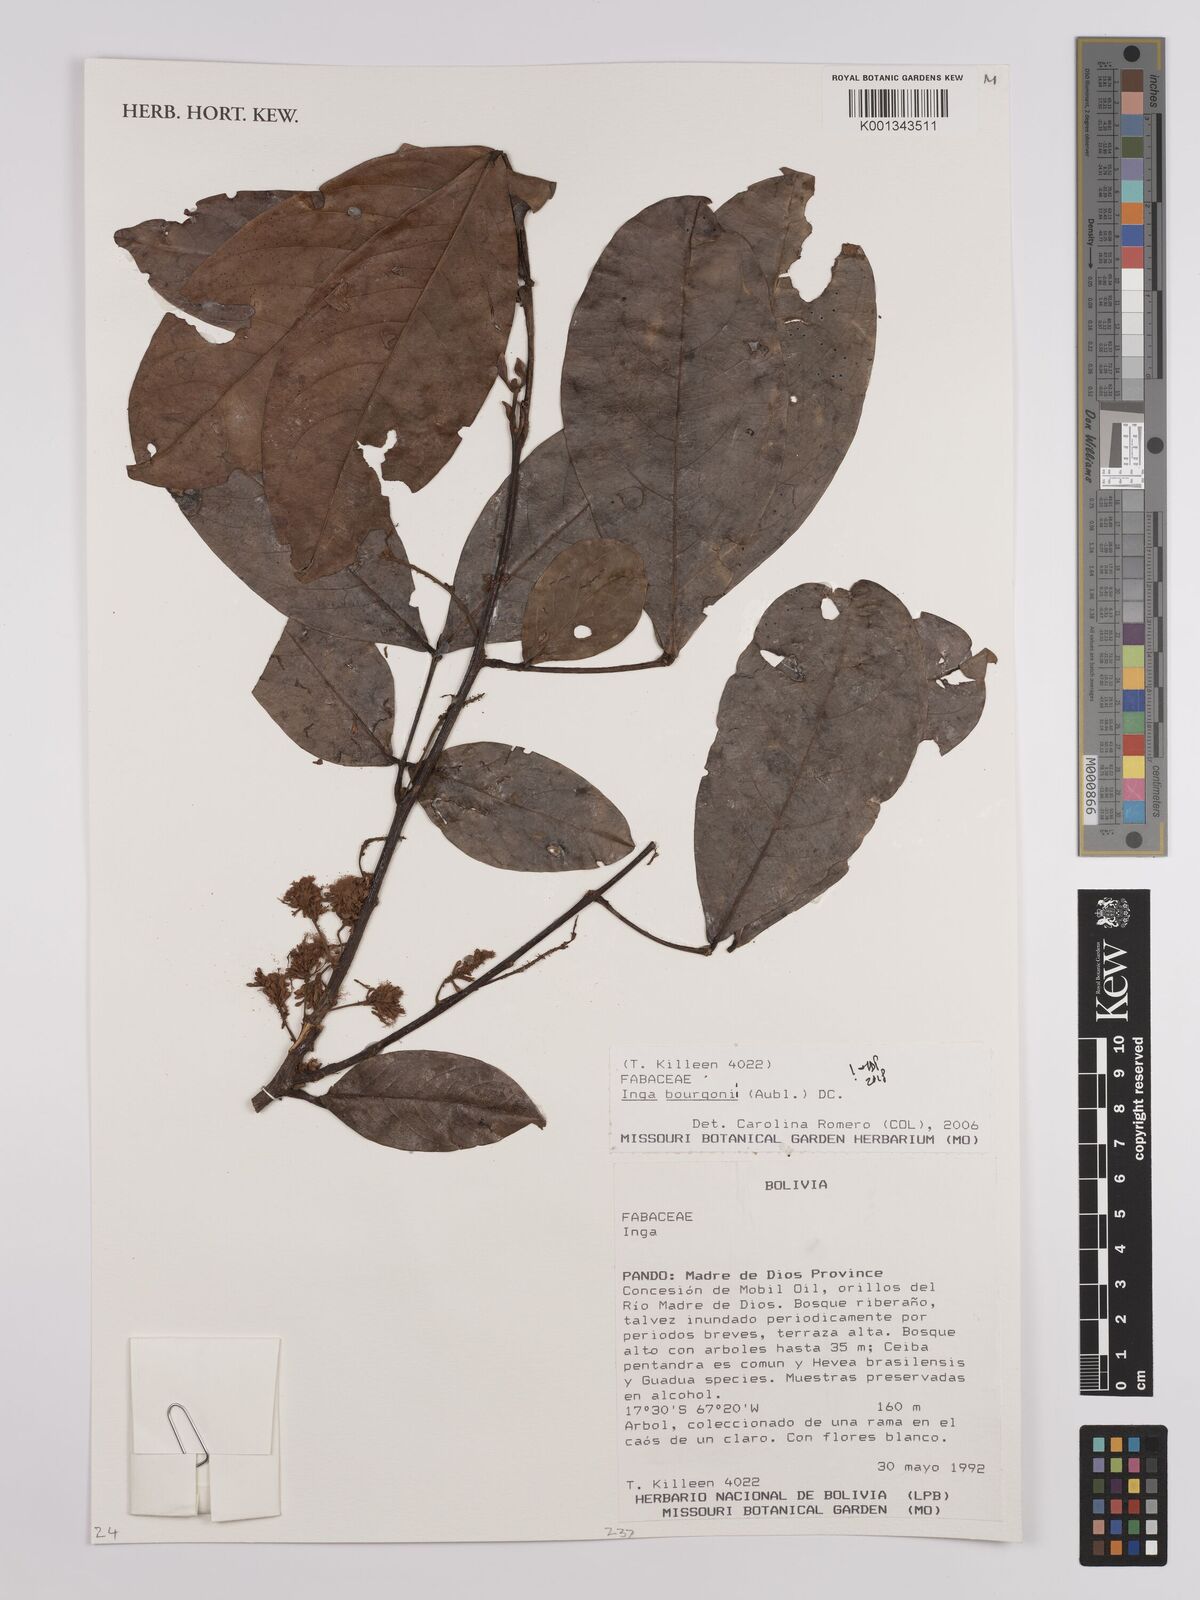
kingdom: Plantae
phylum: Tracheophyta
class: Magnoliopsida
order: Fabales
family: Fabaceae
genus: Inga
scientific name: Inga bourgoni
